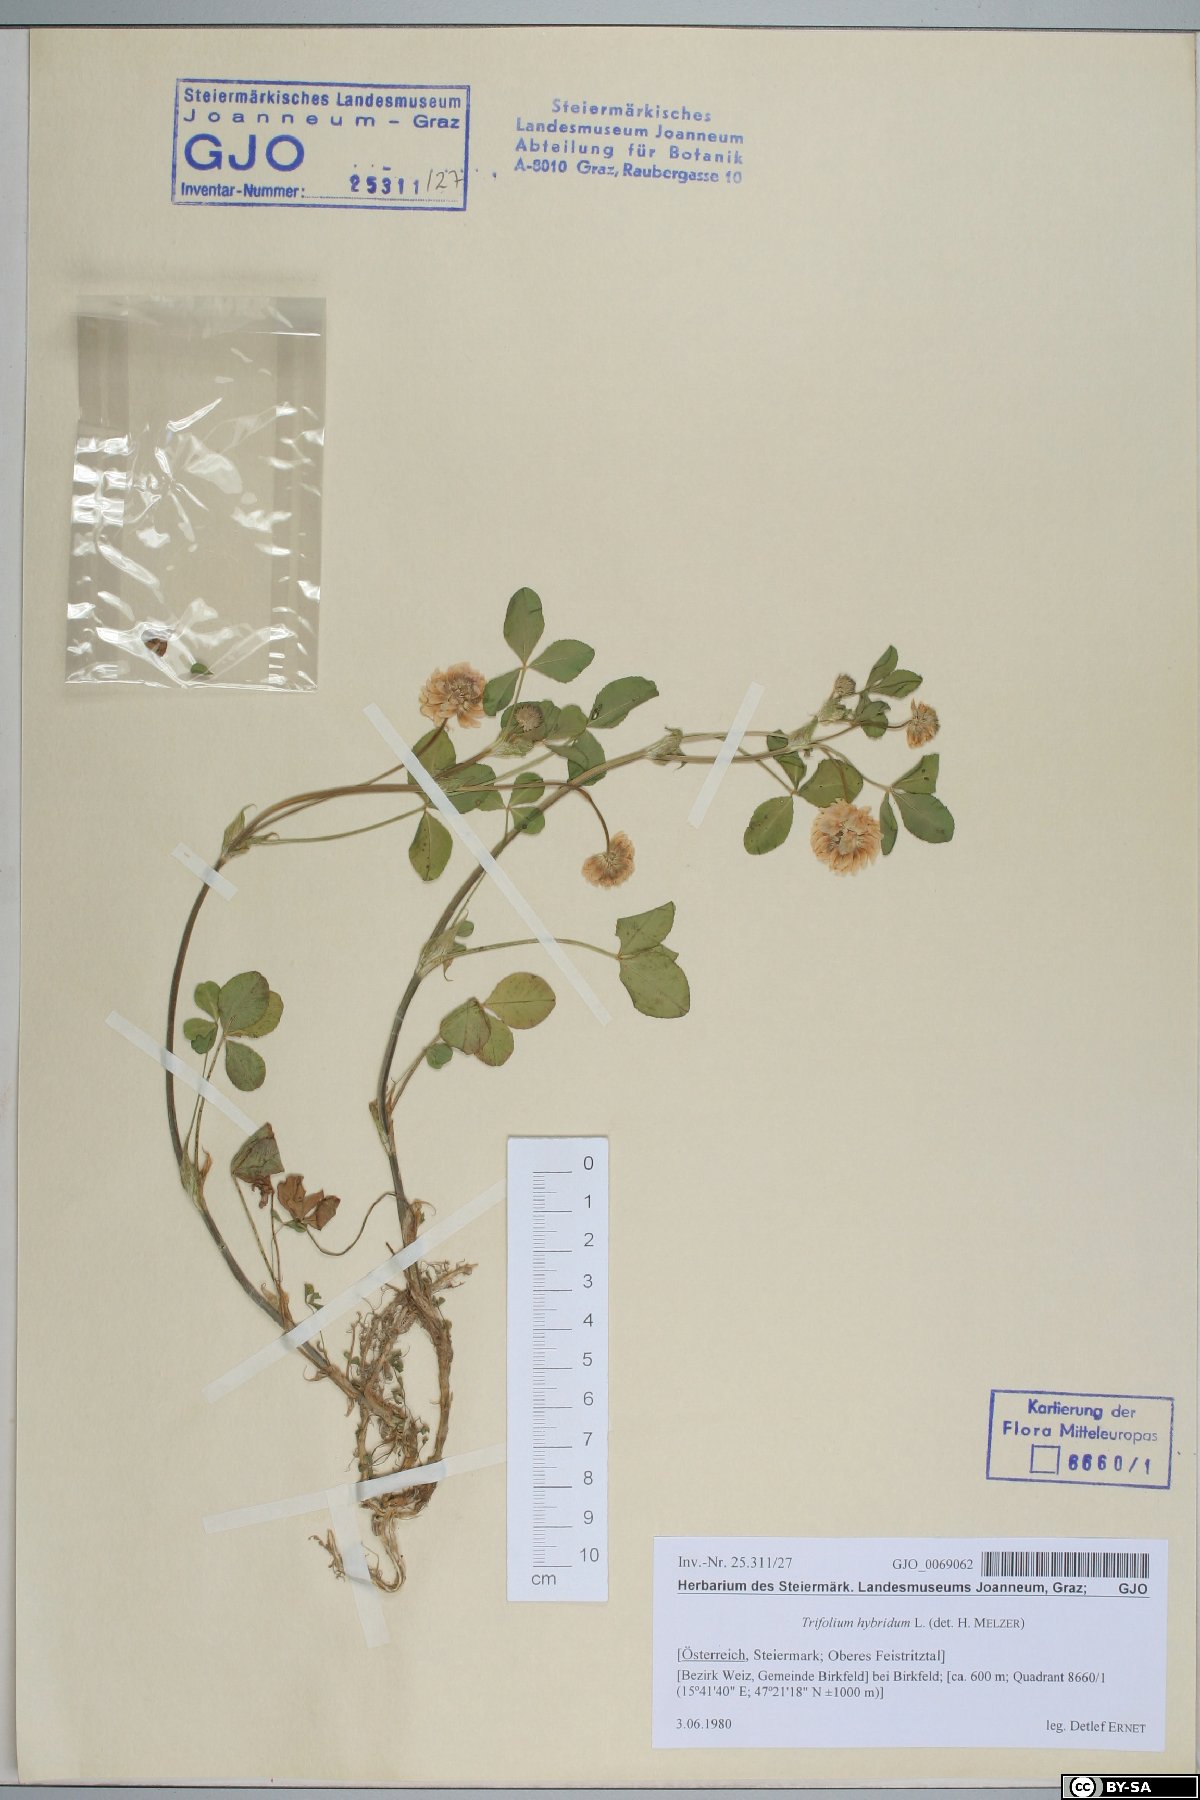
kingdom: Plantae
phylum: Tracheophyta
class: Magnoliopsida
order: Fabales
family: Fabaceae
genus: Trifolium
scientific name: Trifolium hybridum
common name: Alsike clover
